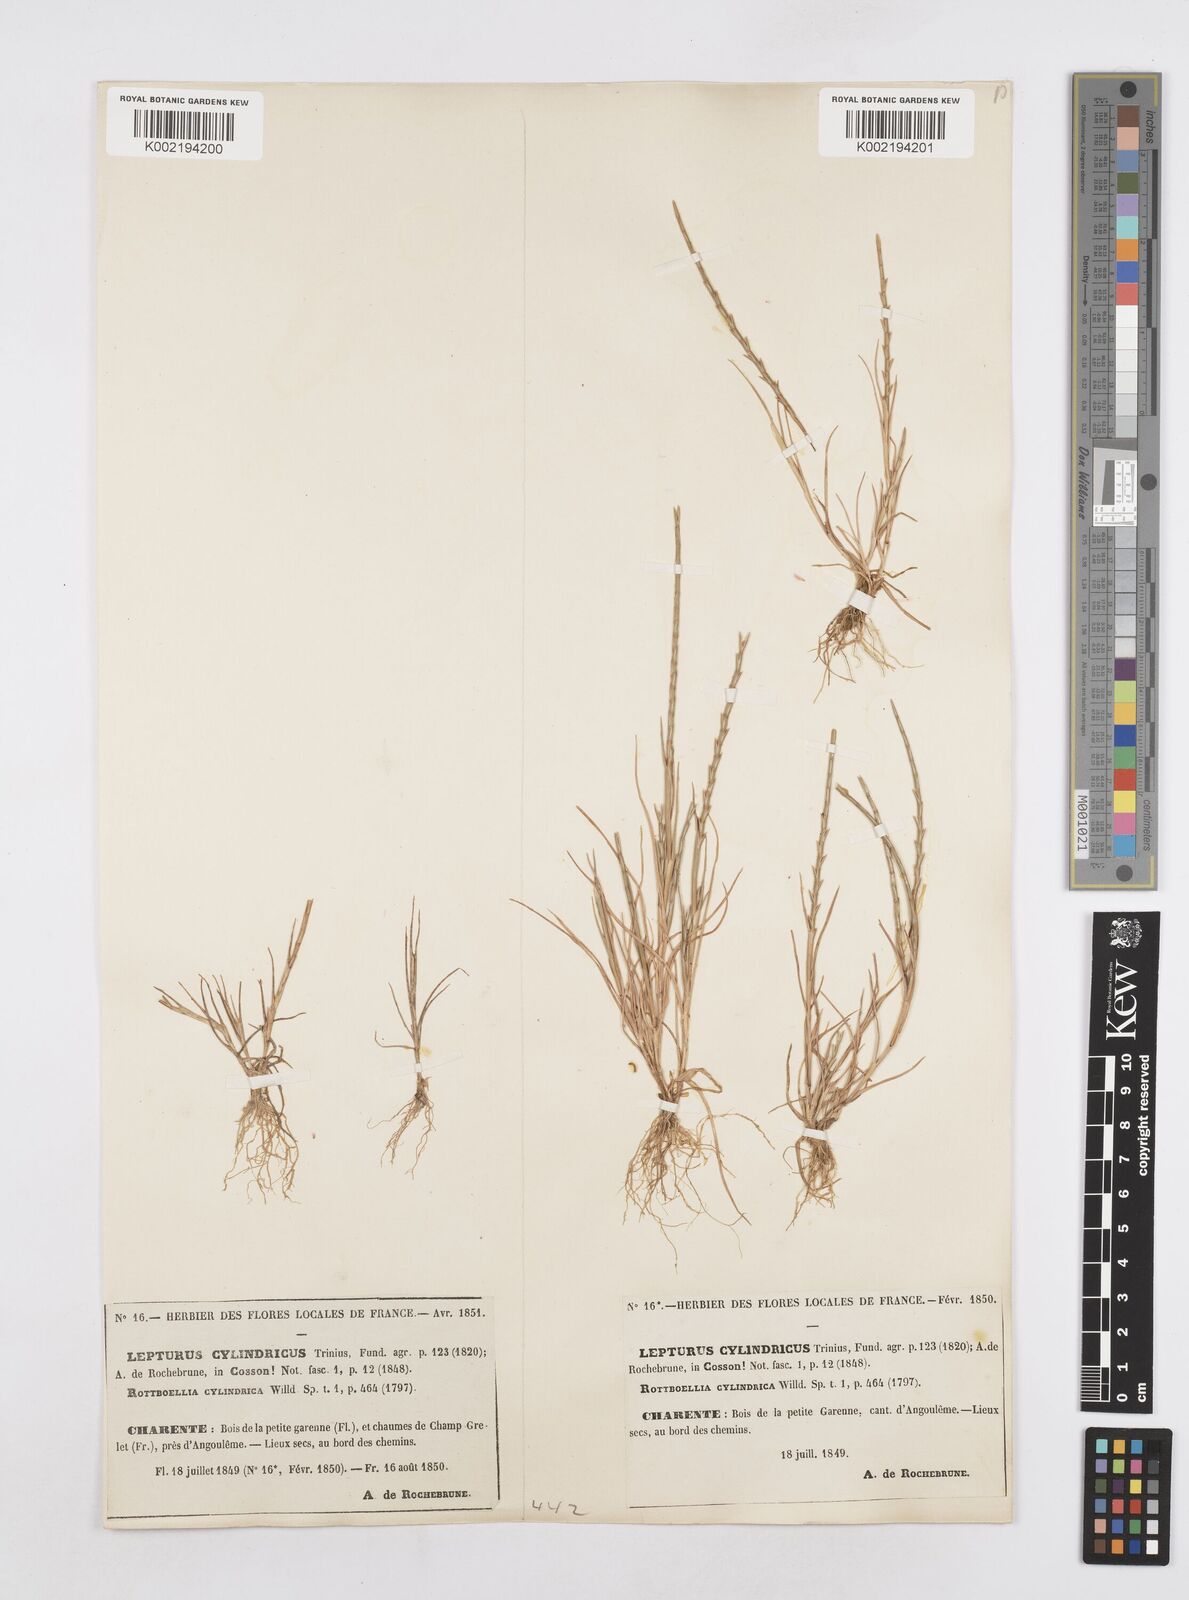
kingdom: Plantae
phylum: Tracheophyta
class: Liliopsida
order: Poales
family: Poaceae
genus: Parapholis
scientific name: Parapholis cylindrica
